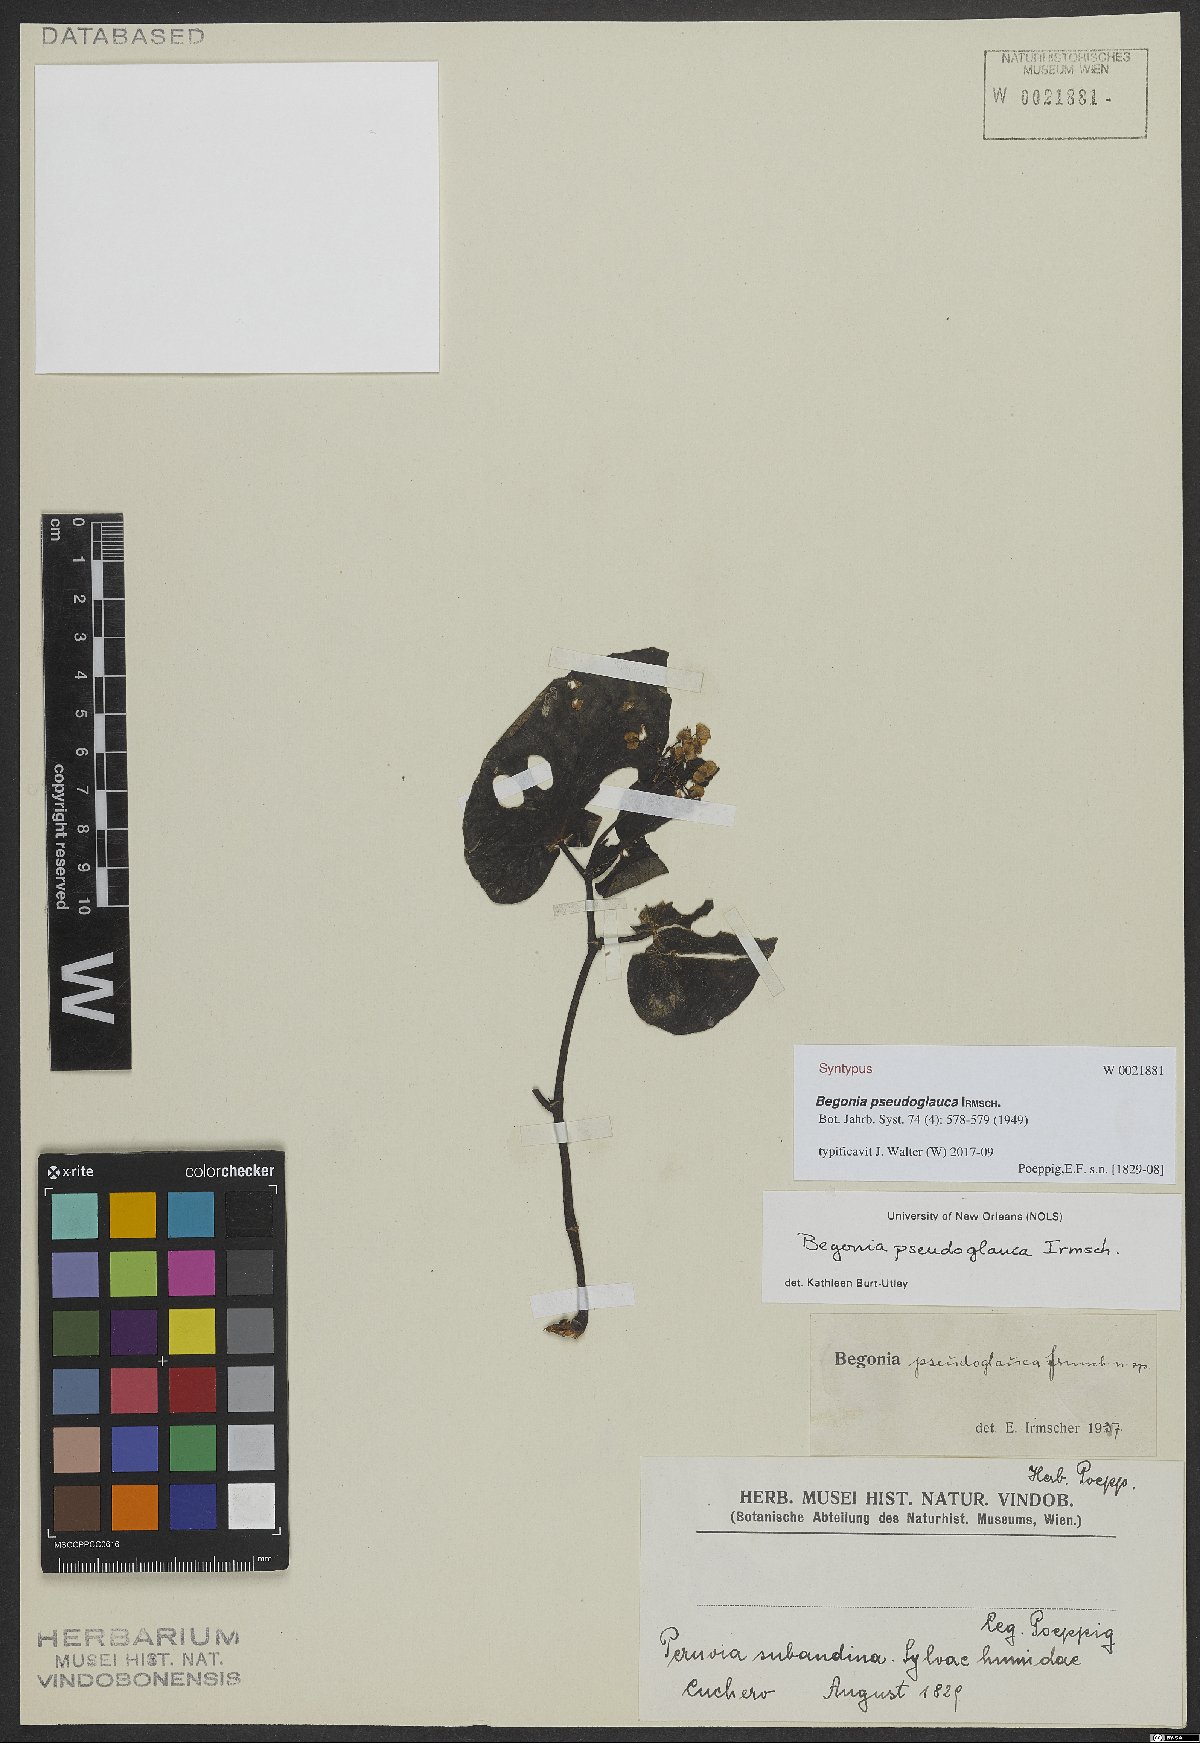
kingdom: Plantae
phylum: Tracheophyta
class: Magnoliopsida
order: Cucurbitales
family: Begoniaceae
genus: Begonia
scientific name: Begonia pseudoglauca
